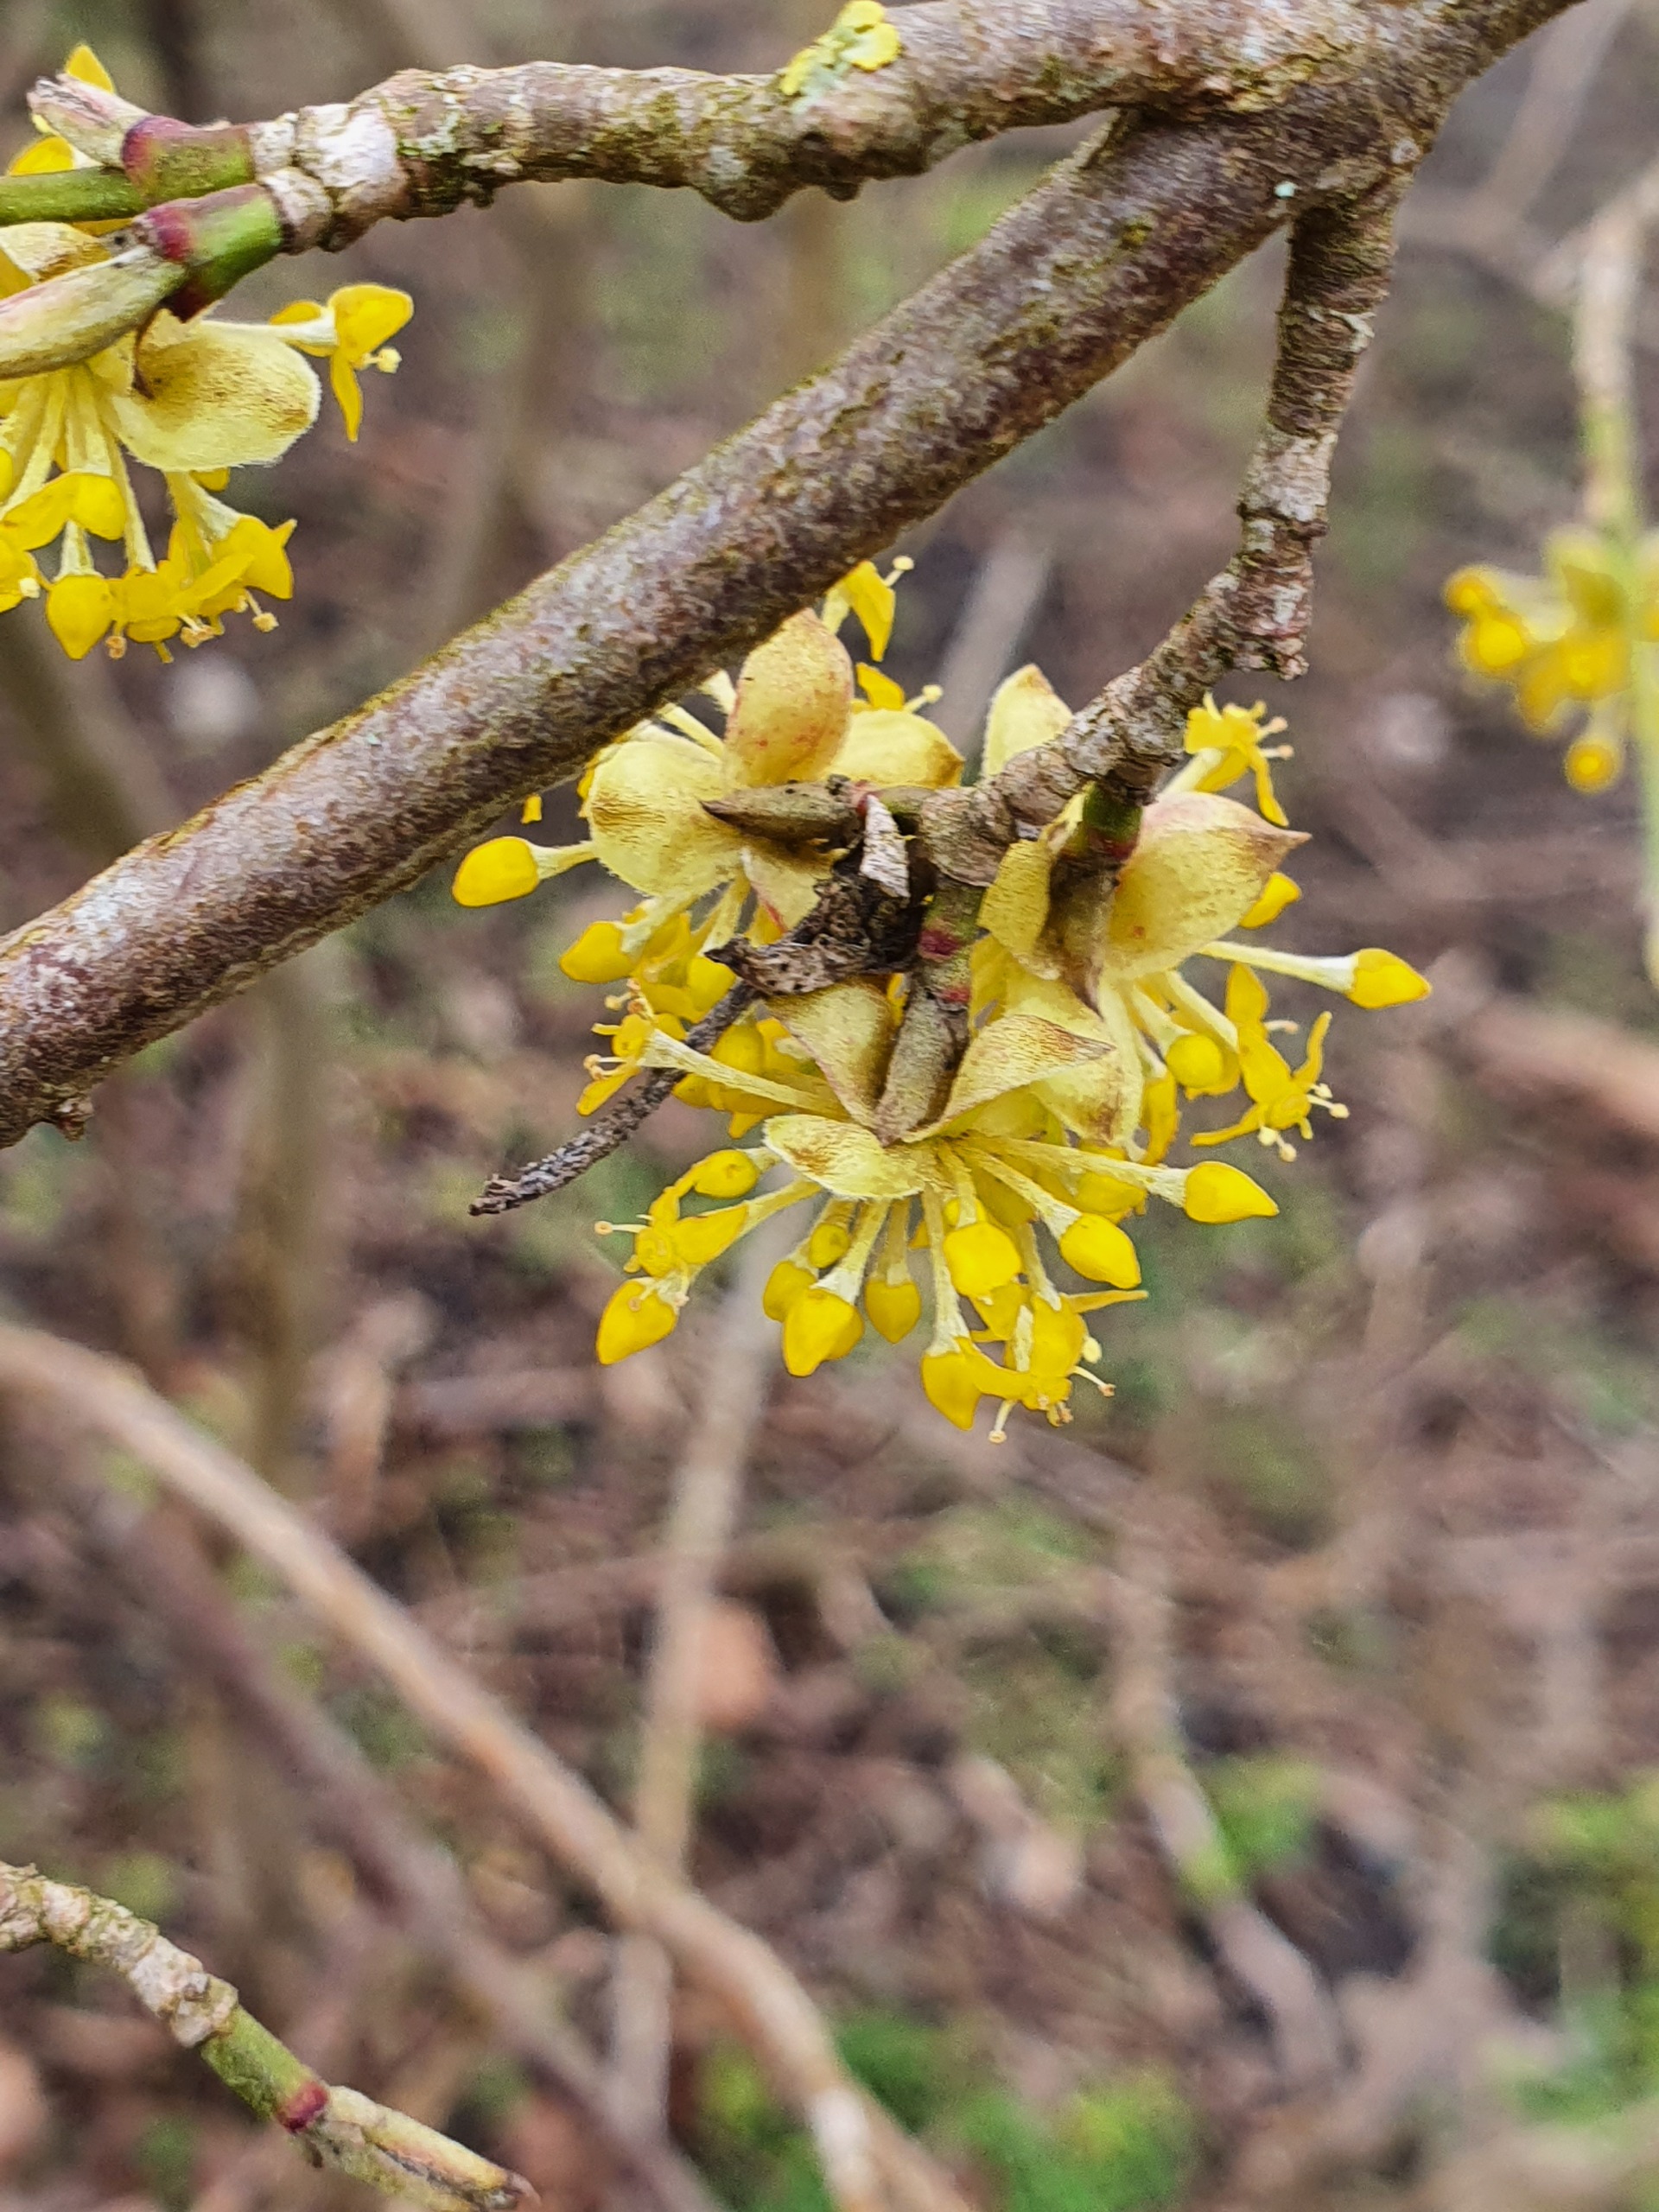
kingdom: Plantae
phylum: Tracheophyta
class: Magnoliopsida
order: Cornales
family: Cornaceae
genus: Cornus
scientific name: Cornus mas
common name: Kirsebær-kornel
